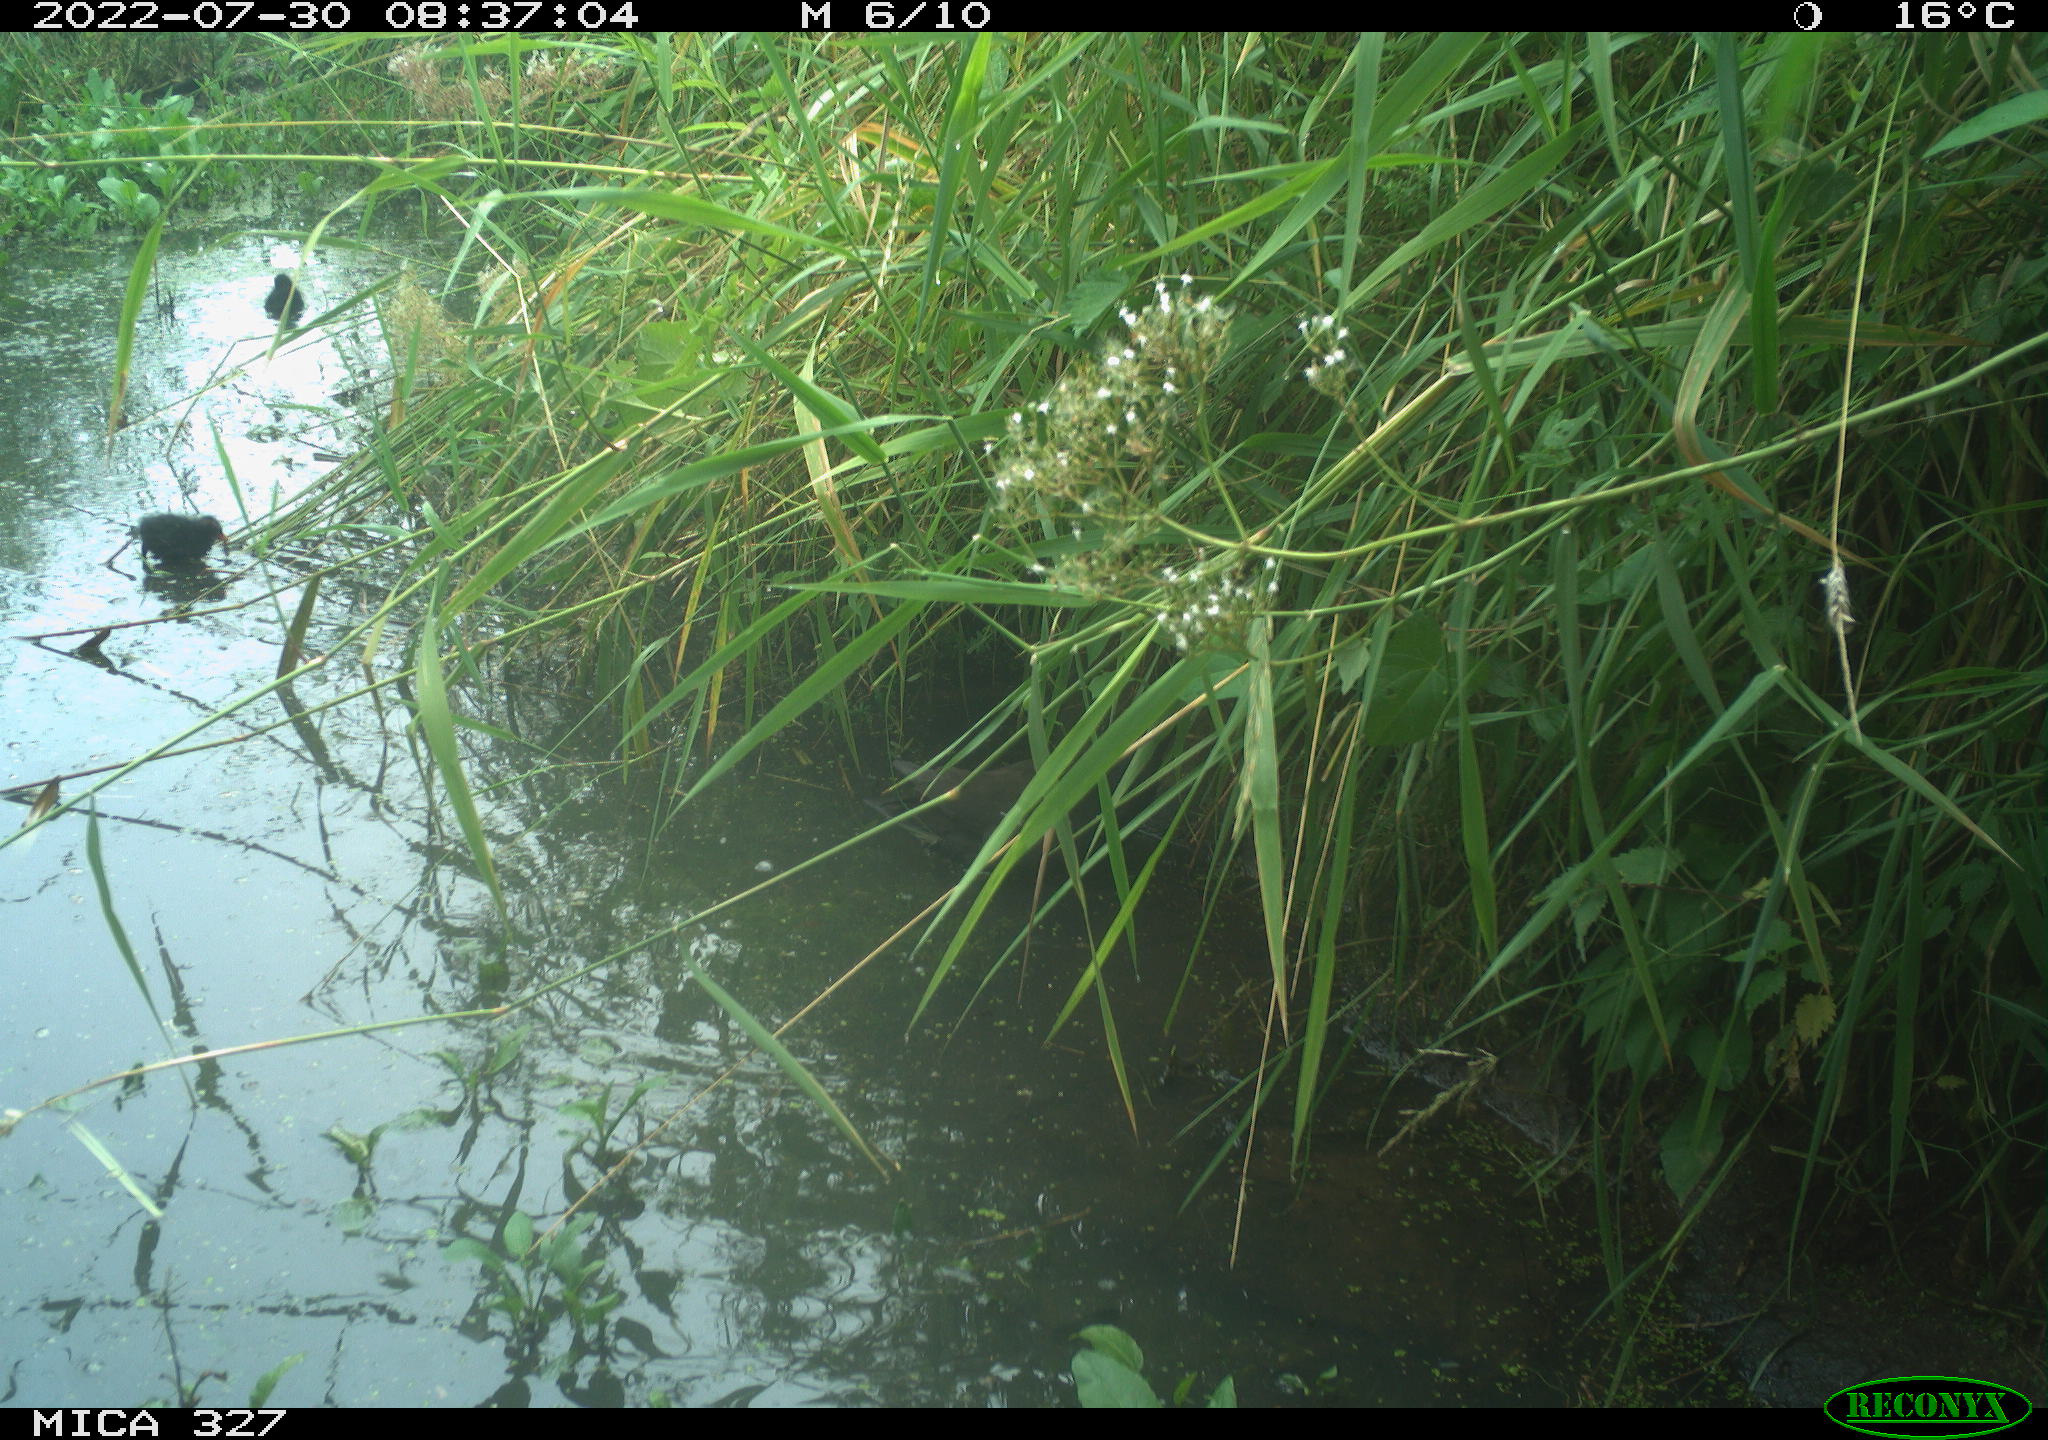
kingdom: Animalia
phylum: Chordata
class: Aves
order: Gruiformes
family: Rallidae
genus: Gallinula
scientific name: Gallinula chloropus
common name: Common moorhen
